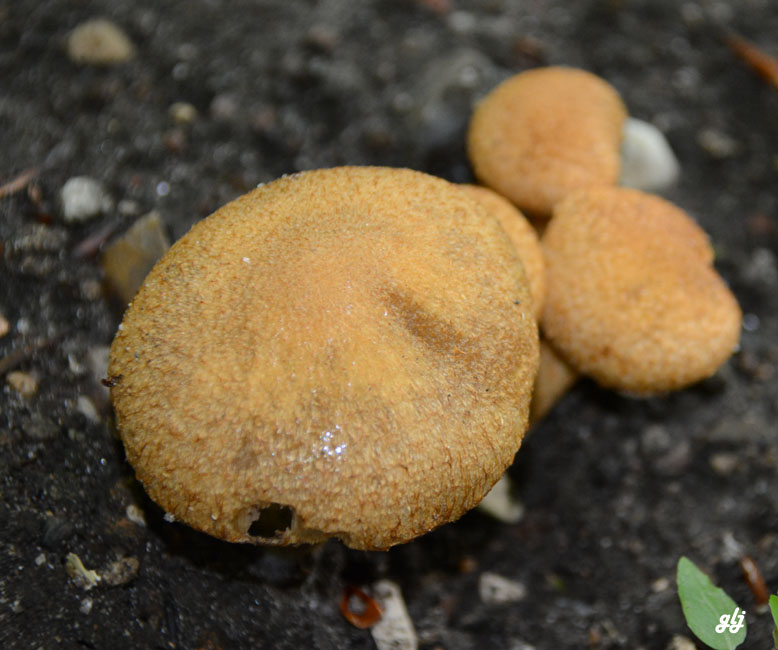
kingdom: Fungi
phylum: Basidiomycota
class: Agaricomycetes
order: Agaricales
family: Psathyrellaceae
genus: Lacrymaria
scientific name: Lacrymaria pyrotricha
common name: ildhåret mørkhat
